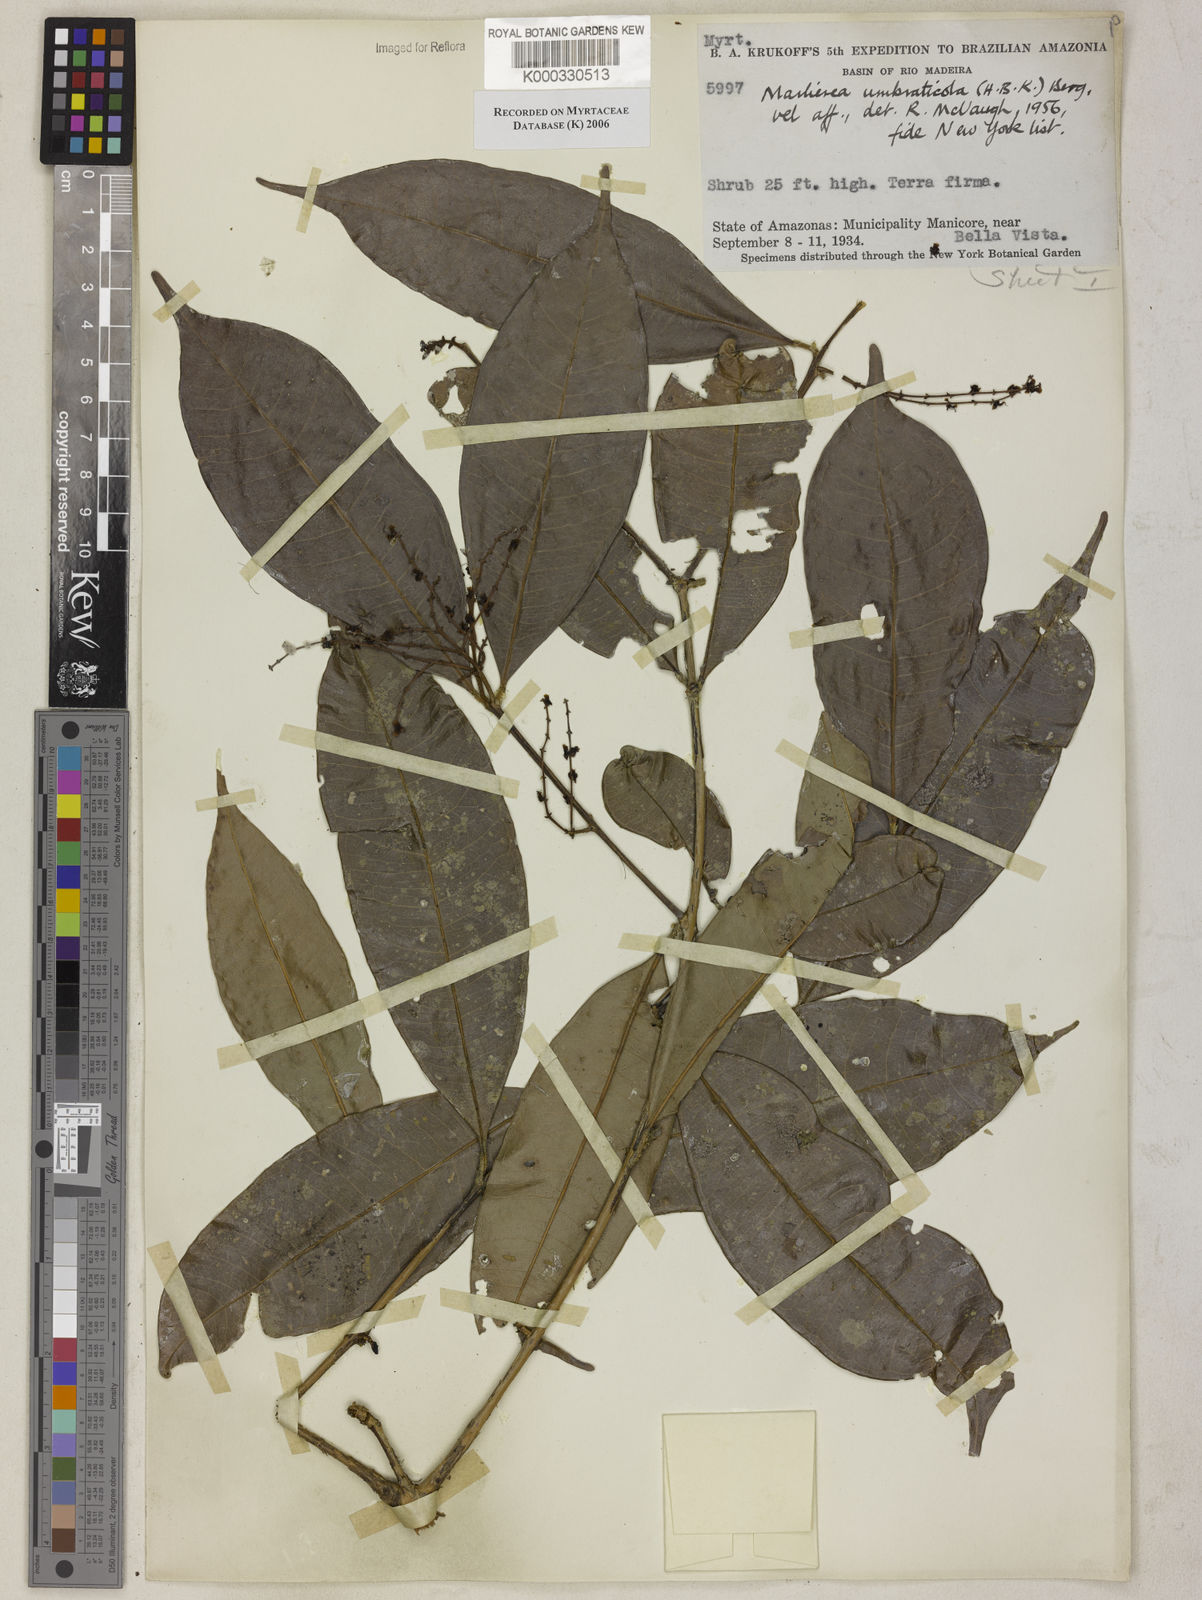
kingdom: Plantae
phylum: Tracheophyta
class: Magnoliopsida
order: Myrtales
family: Myrtaceae
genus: Myrcia
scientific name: Myrcia umbraticola
